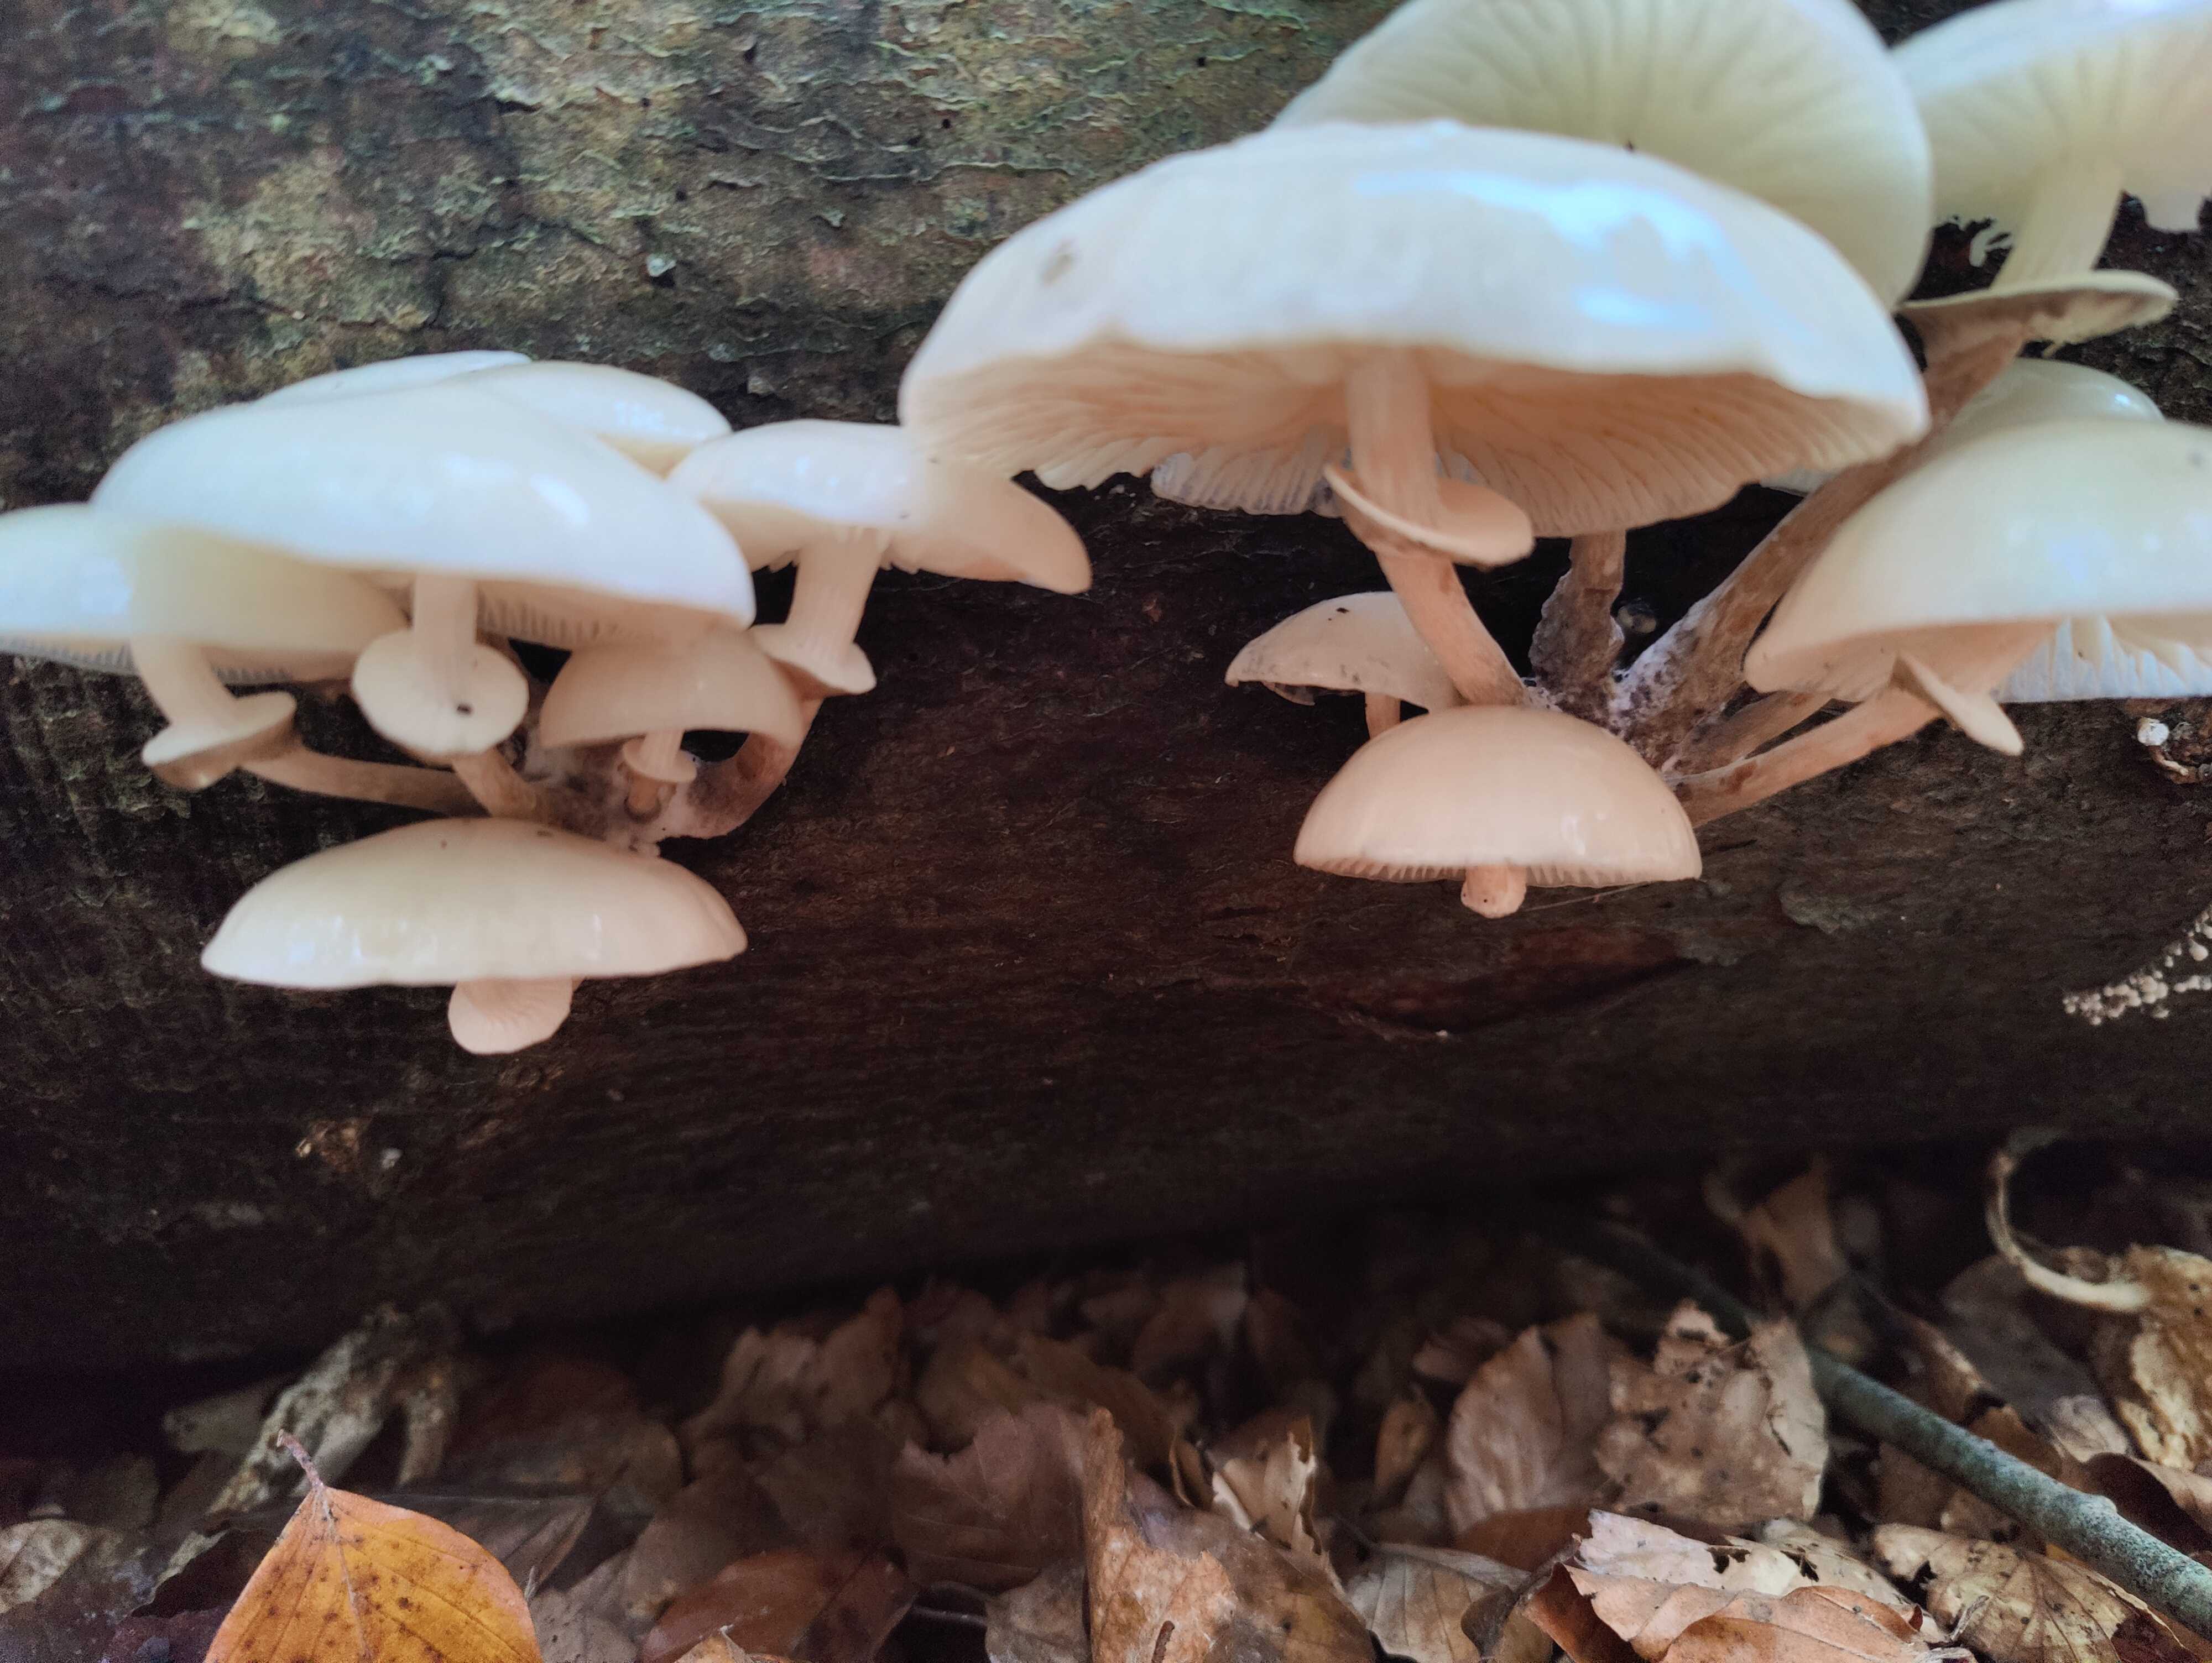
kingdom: Fungi
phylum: Basidiomycota
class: Agaricomycetes
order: Agaricales
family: Physalacriaceae
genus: Mucidula
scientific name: Mucidula mucida
